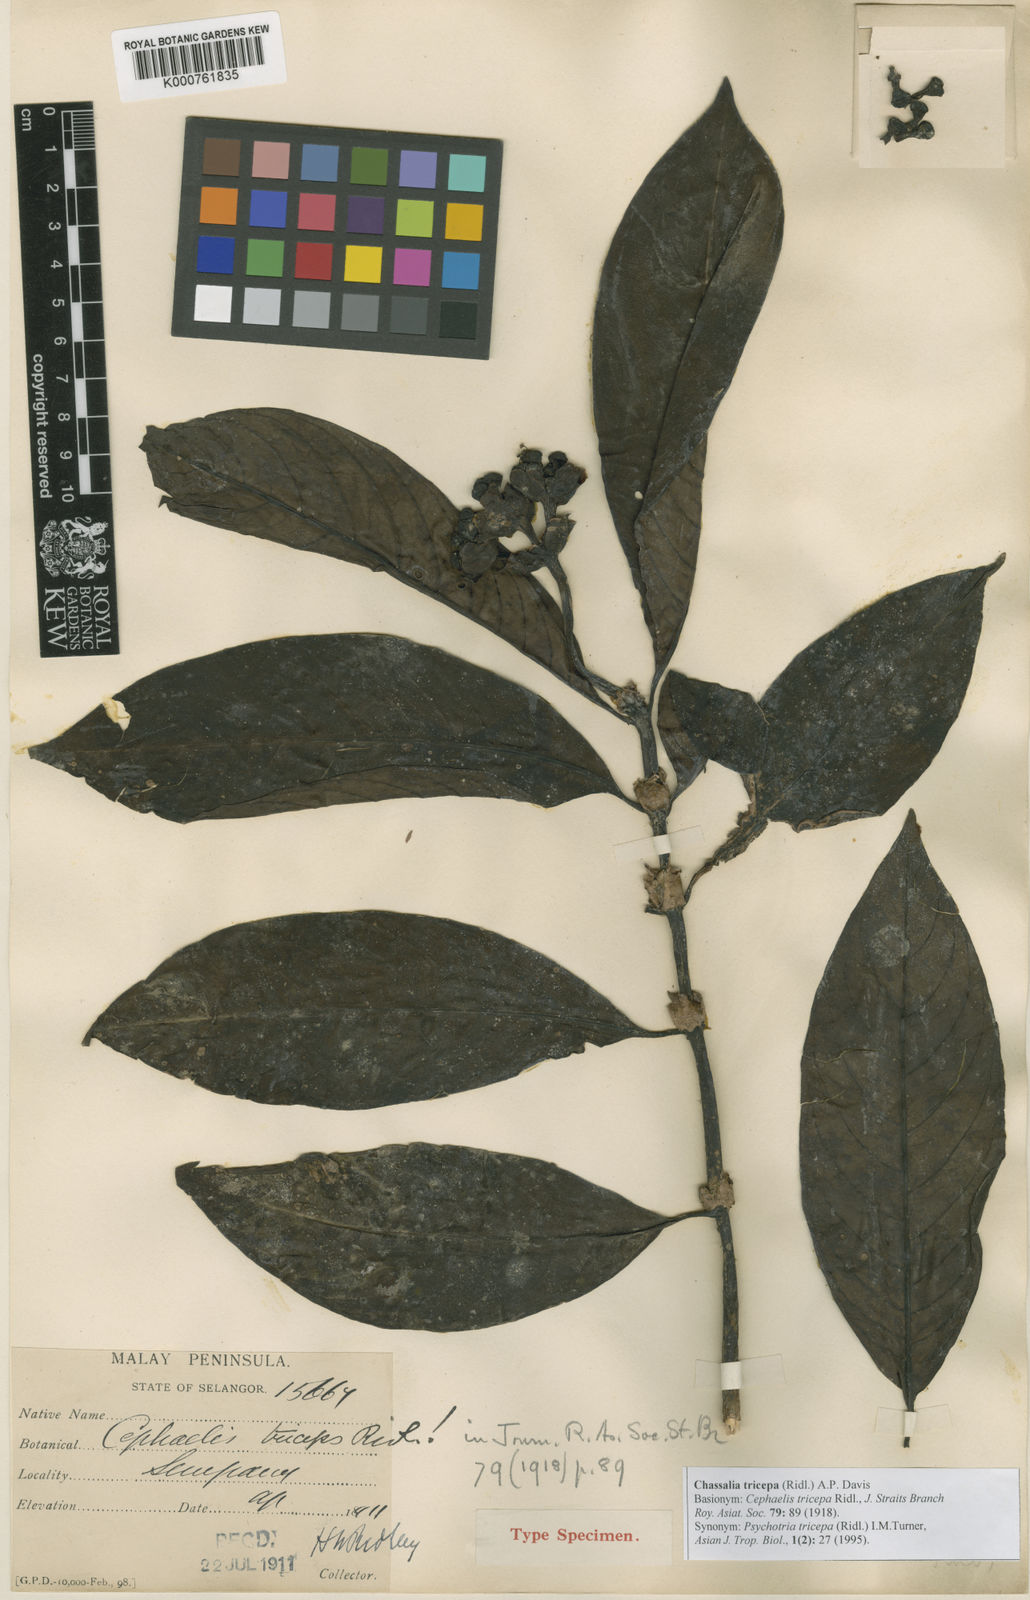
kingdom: Plantae
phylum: Tracheophyta
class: Magnoliopsida
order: Gentianales
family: Rubiaceae
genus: Chassalia
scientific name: Chassalia
